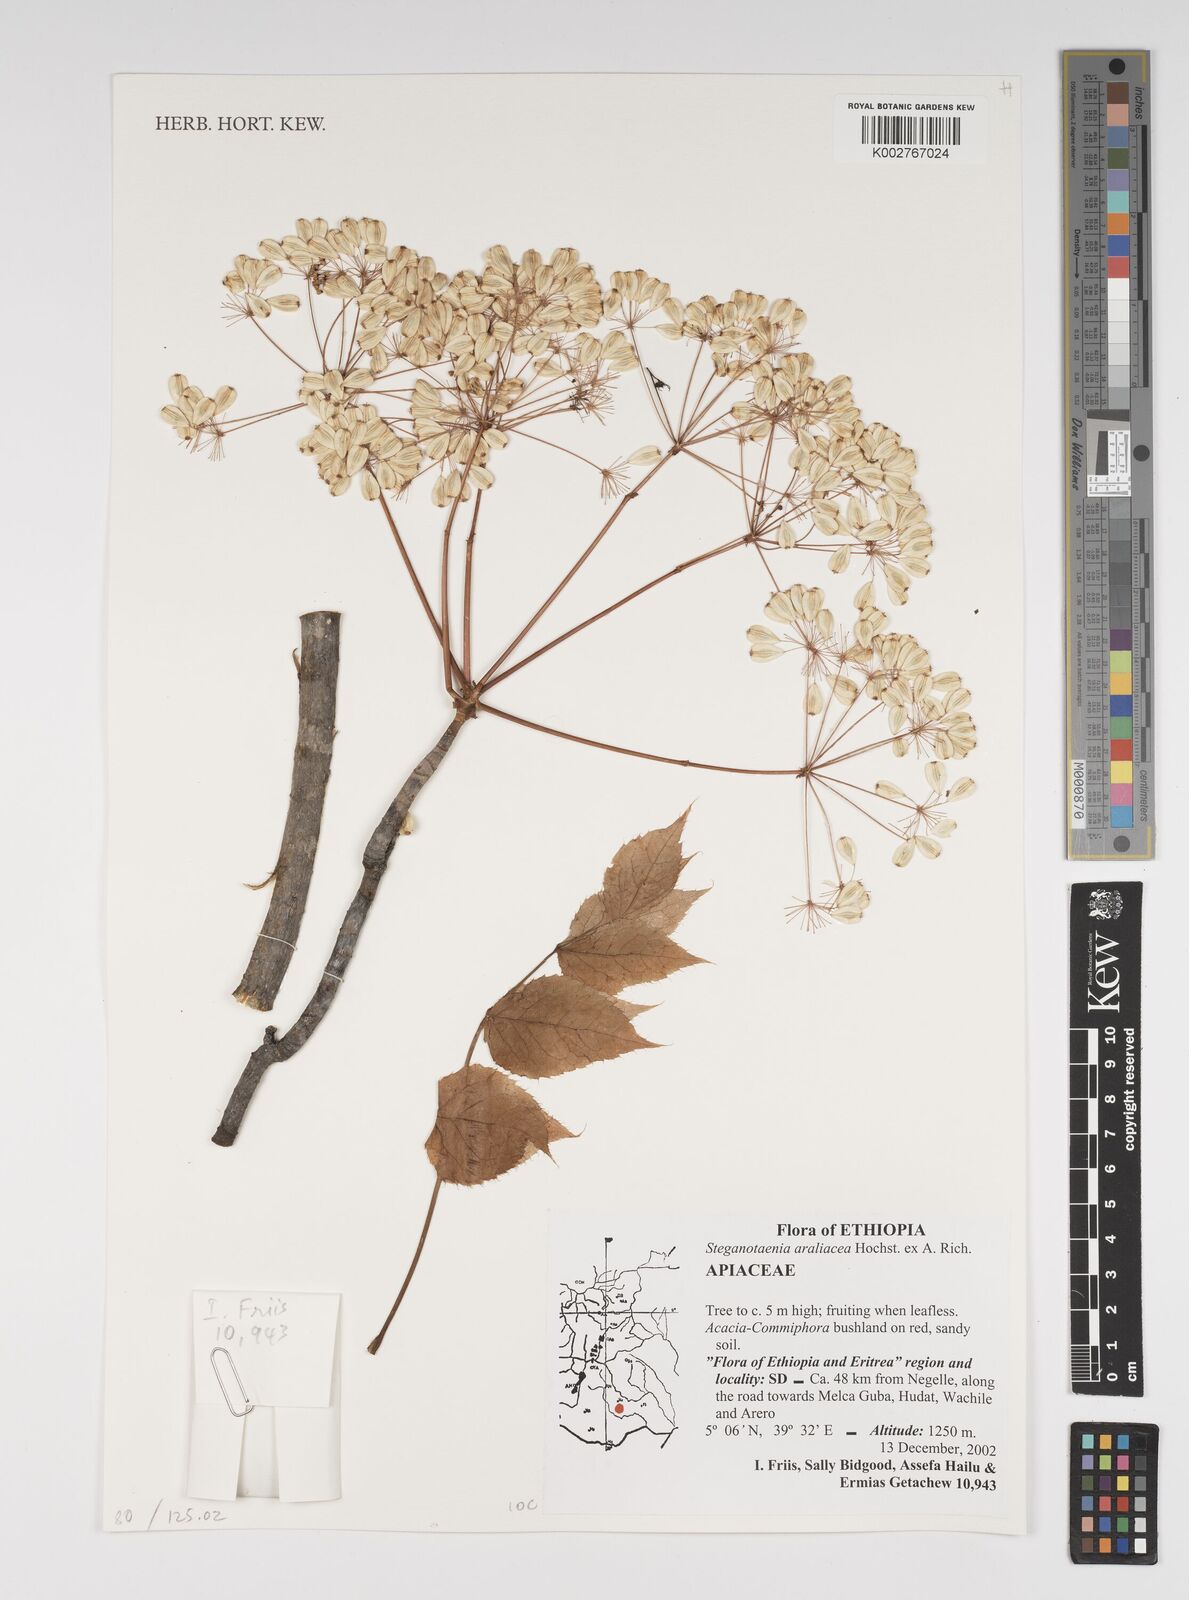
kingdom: Plantae
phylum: Tracheophyta
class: Magnoliopsida
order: Apiales
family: Apiaceae
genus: Steganotaenia
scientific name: Steganotaenia araliacea
